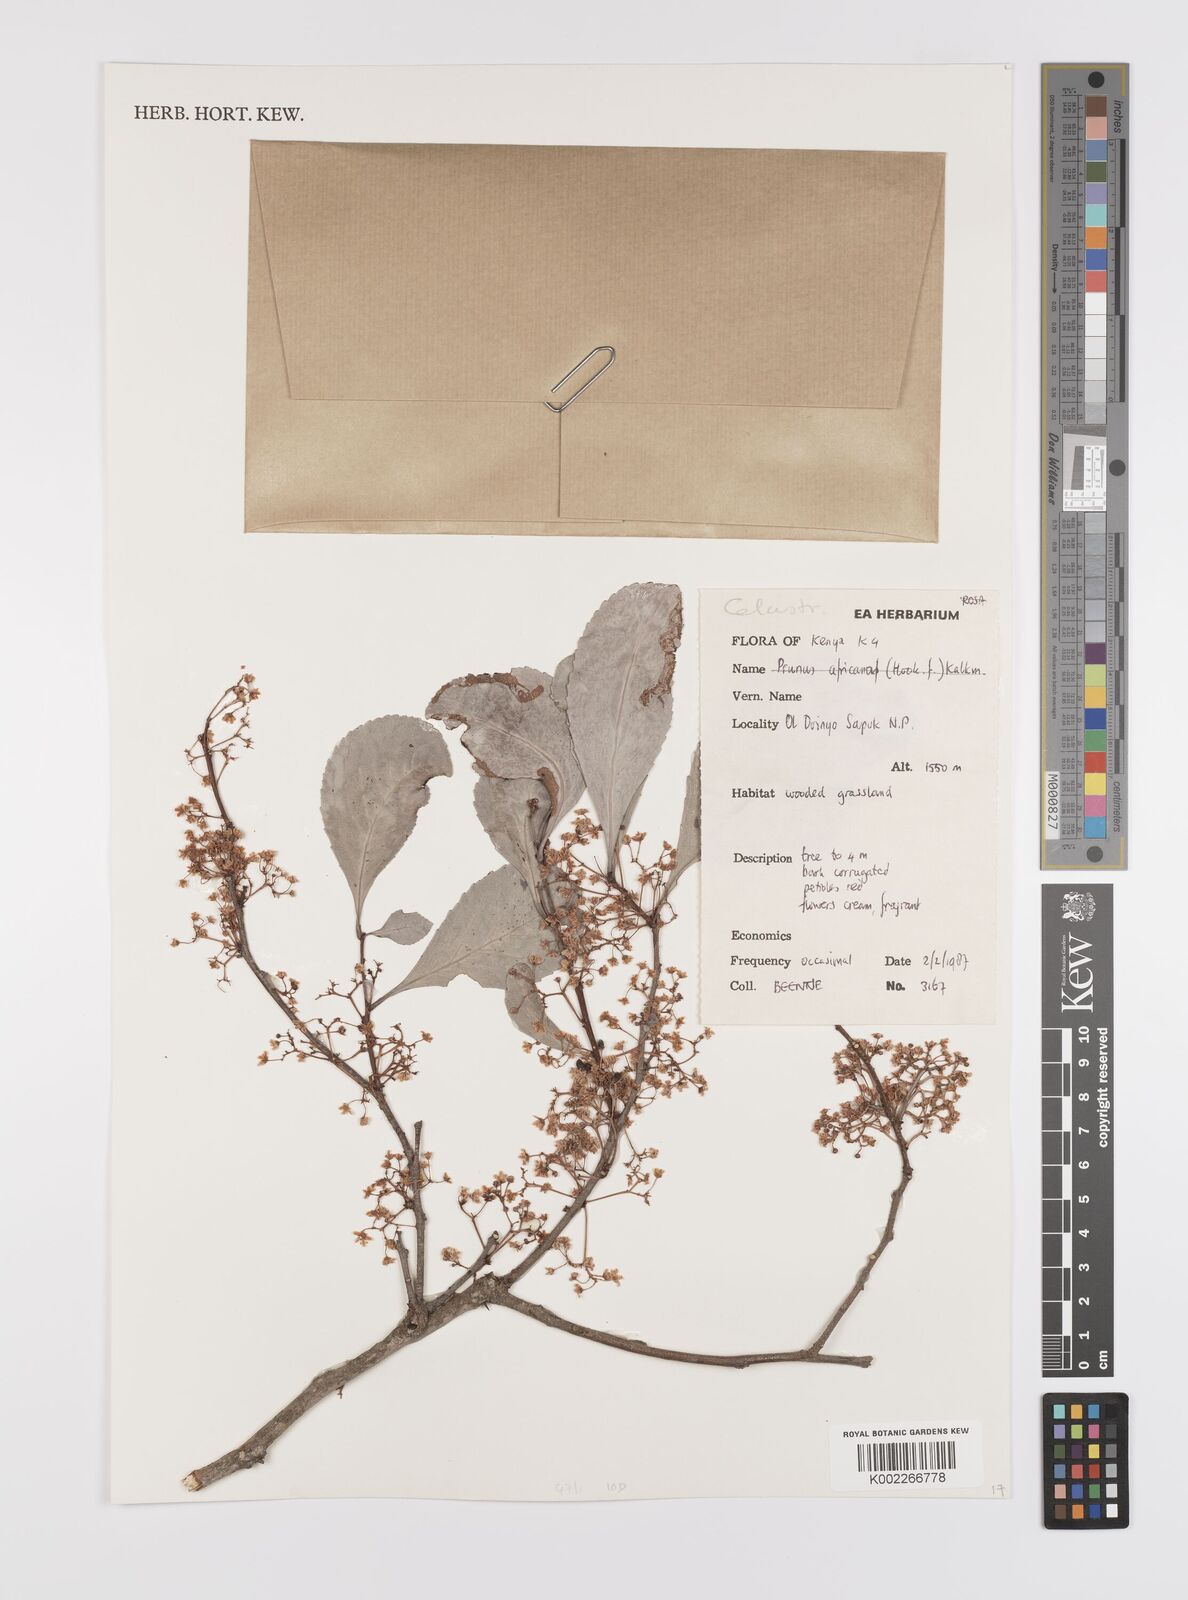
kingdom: Plantae
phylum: Tracheophyta
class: Magnoliopsida
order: Celastrales
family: Celastraceae
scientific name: Celastraceae
